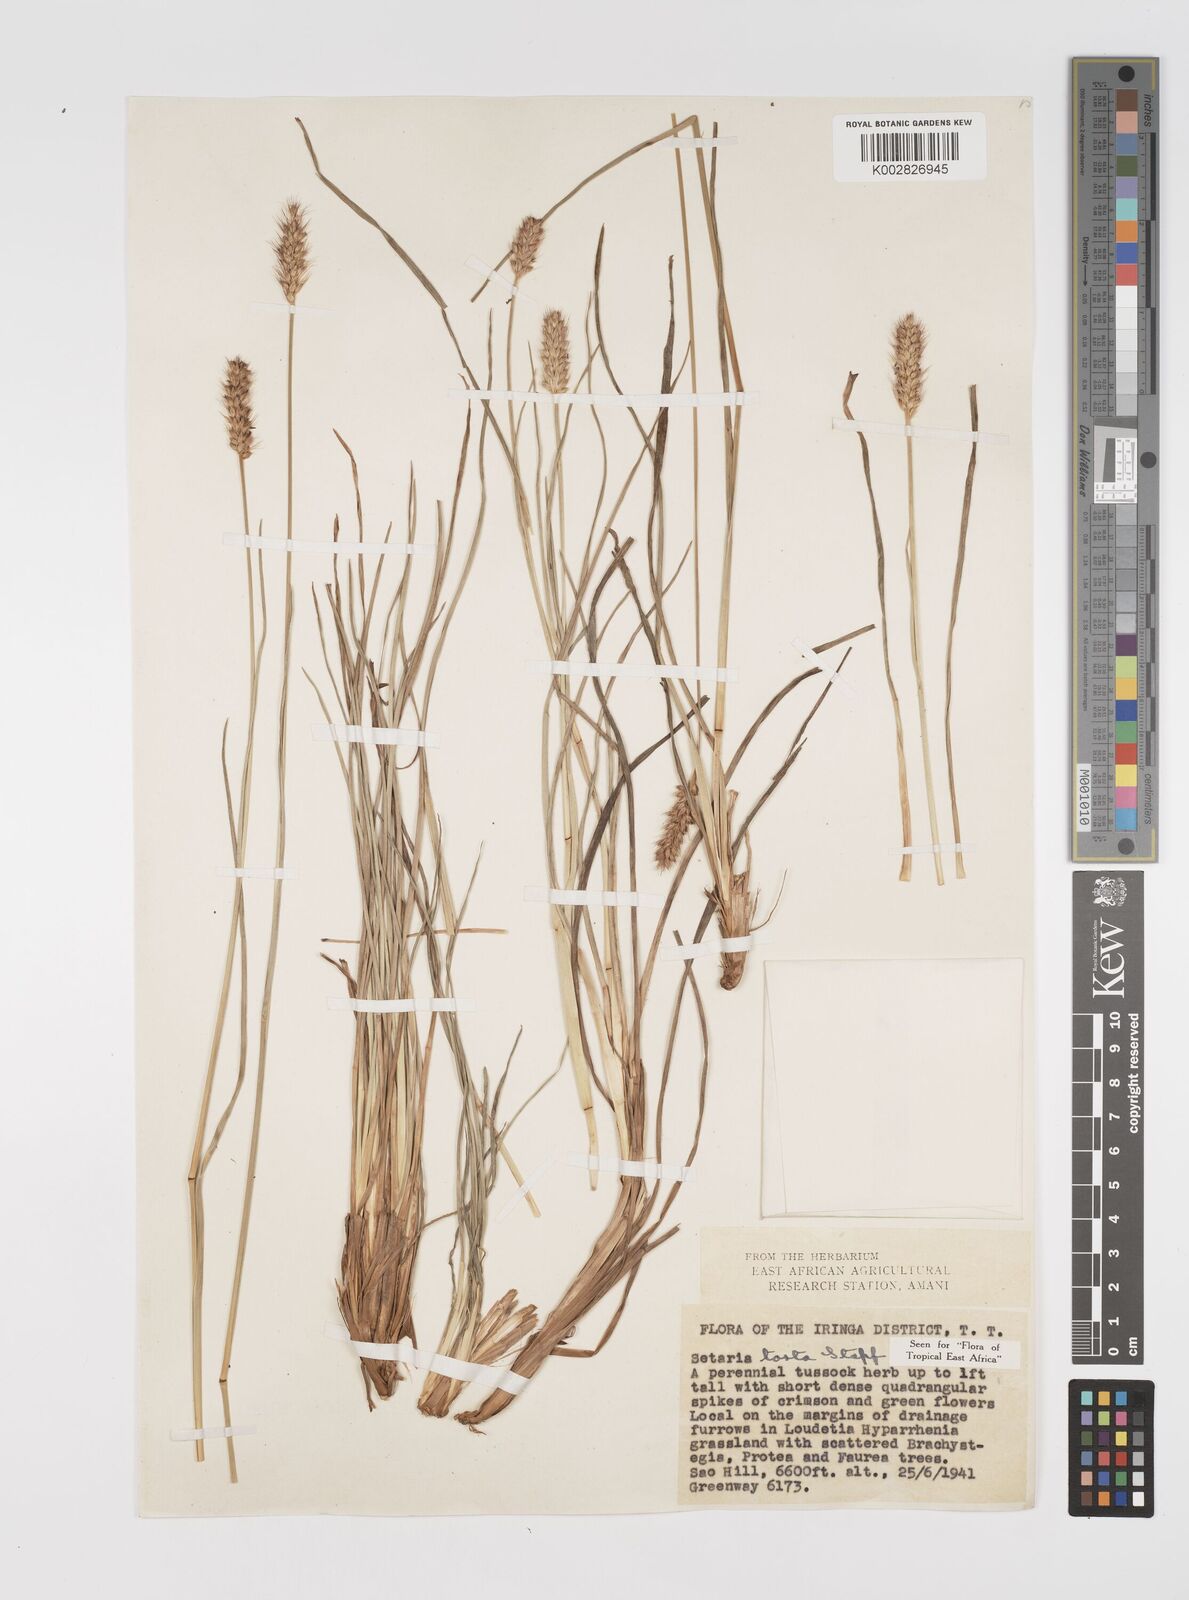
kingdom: Plantae
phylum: Tracheophyta
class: Liliopsida
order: Poales
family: Poaceae
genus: Setaria
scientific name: Setaria sphacelata
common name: African bristlegrass
